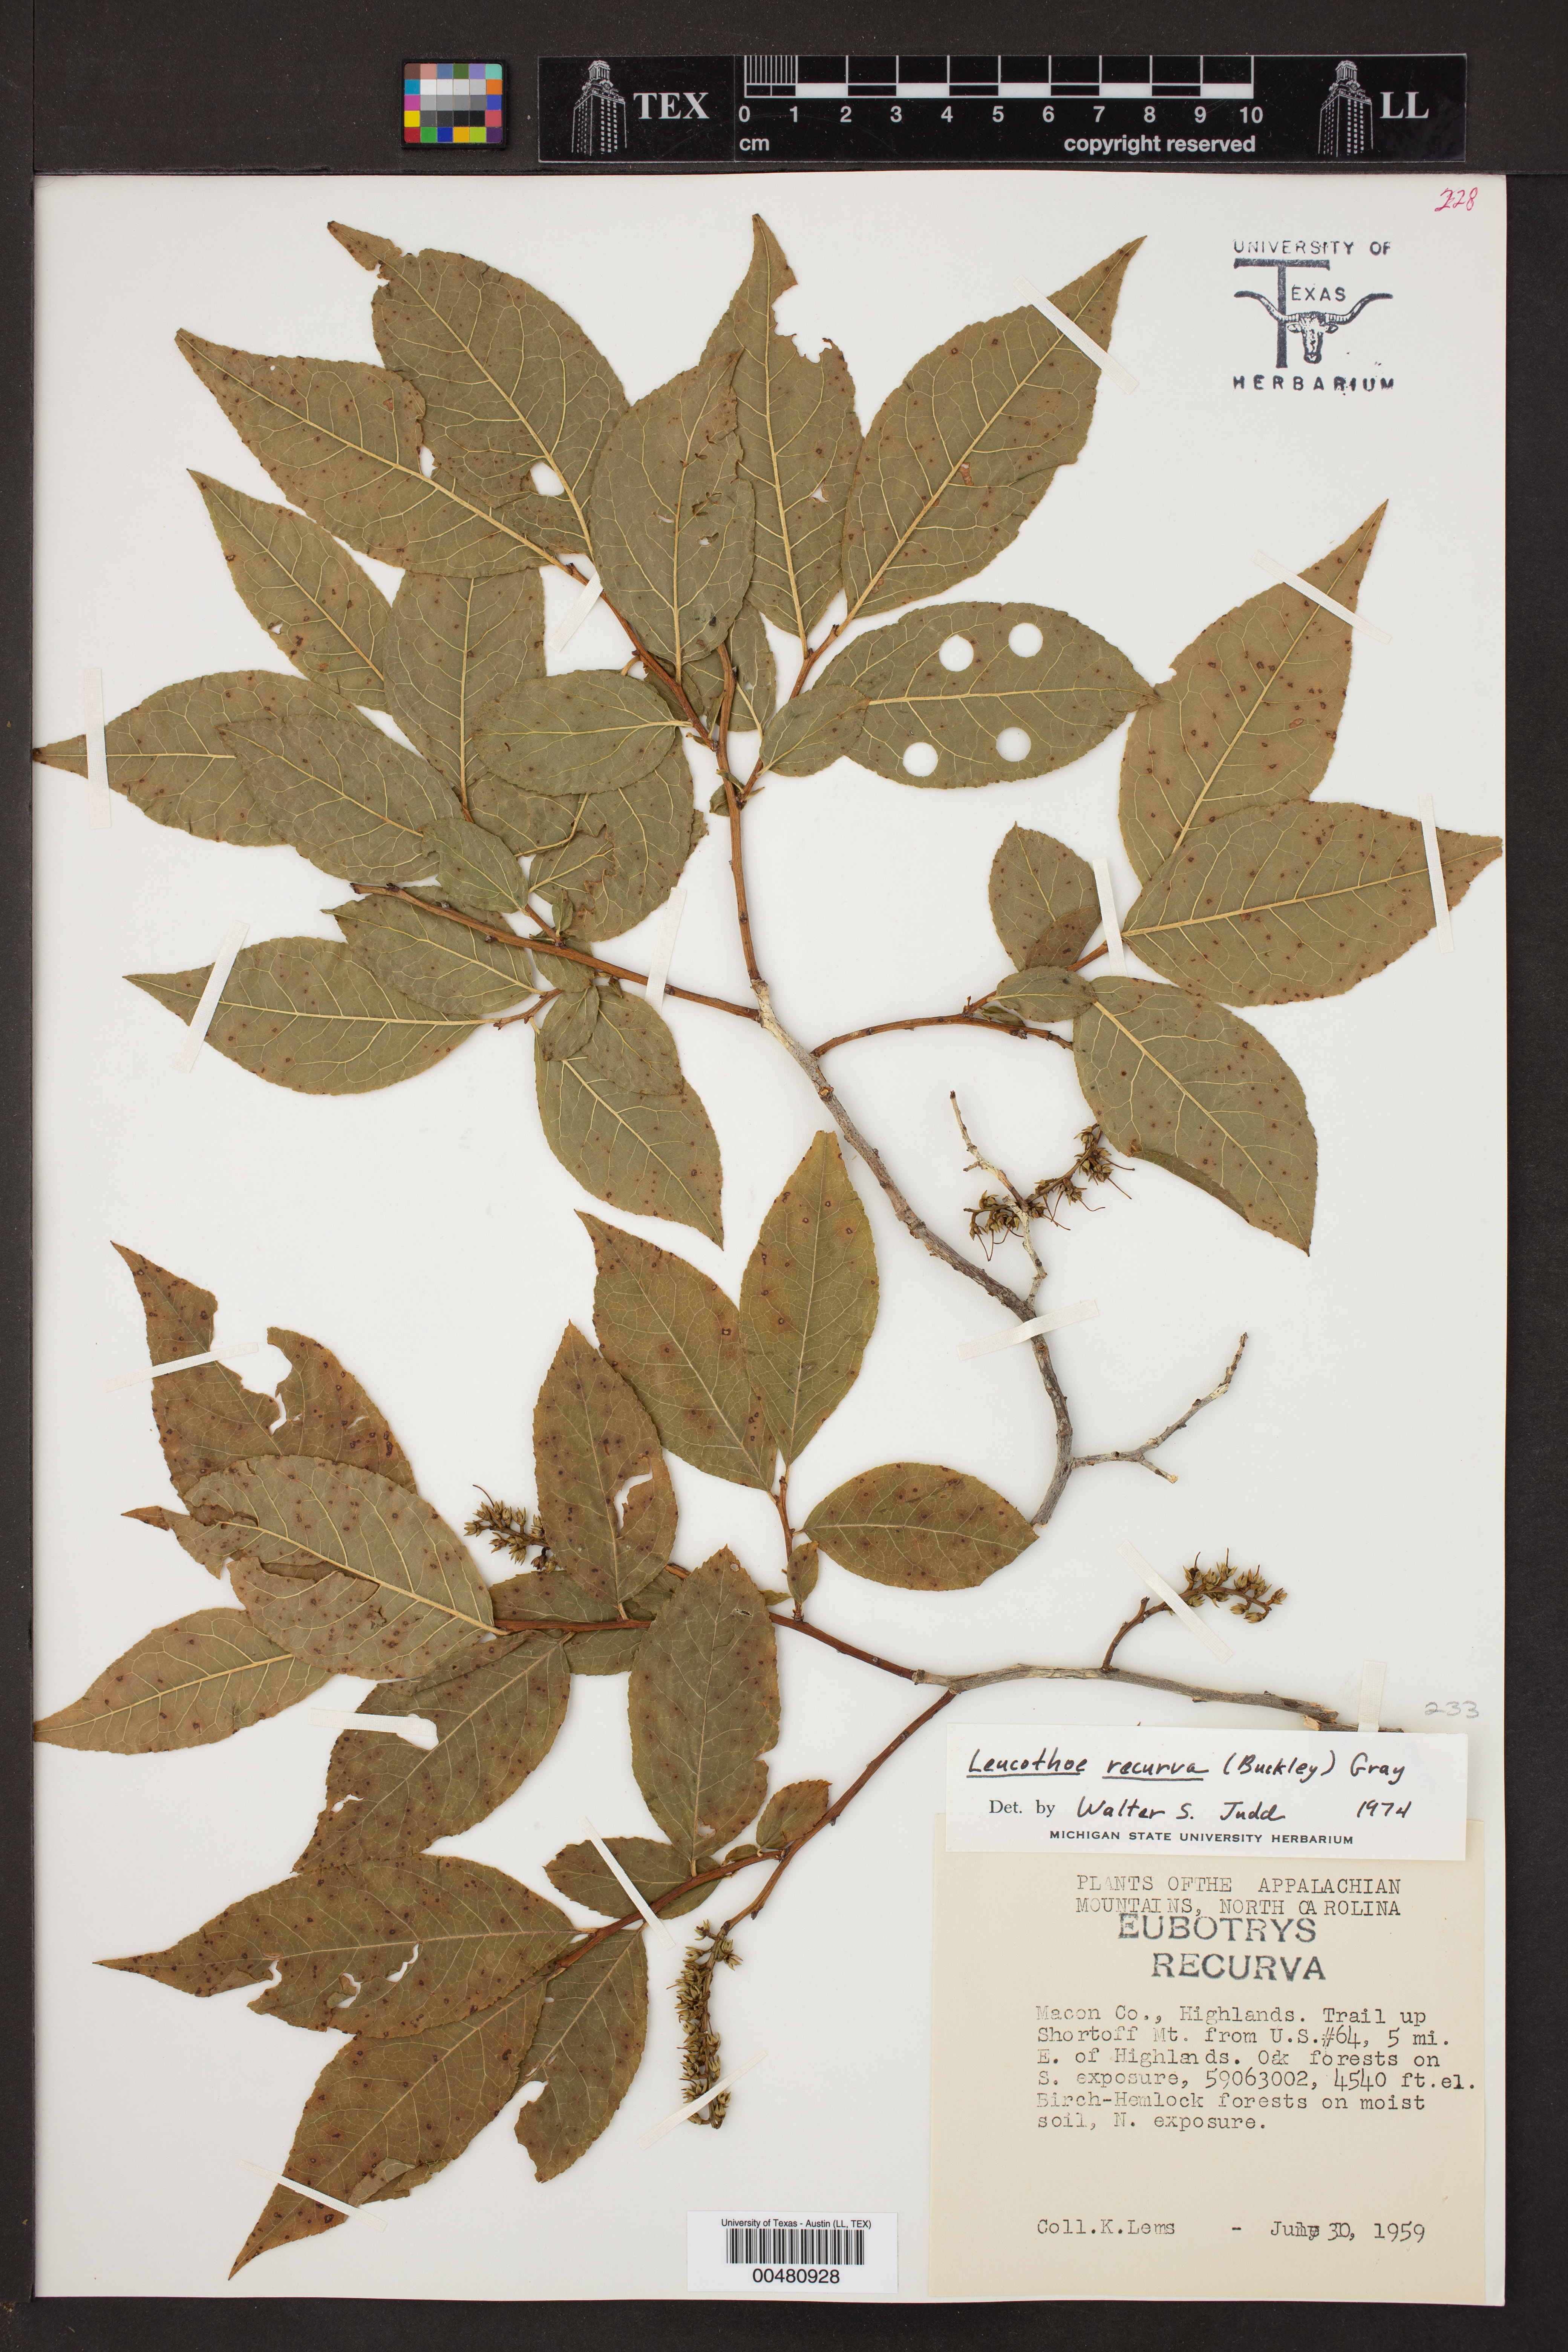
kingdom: Plantae
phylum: Tracheophyta
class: Magnoliopsida
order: Ericales
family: Ericaceae
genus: Eubotrys
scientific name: Eubotrys recurva
